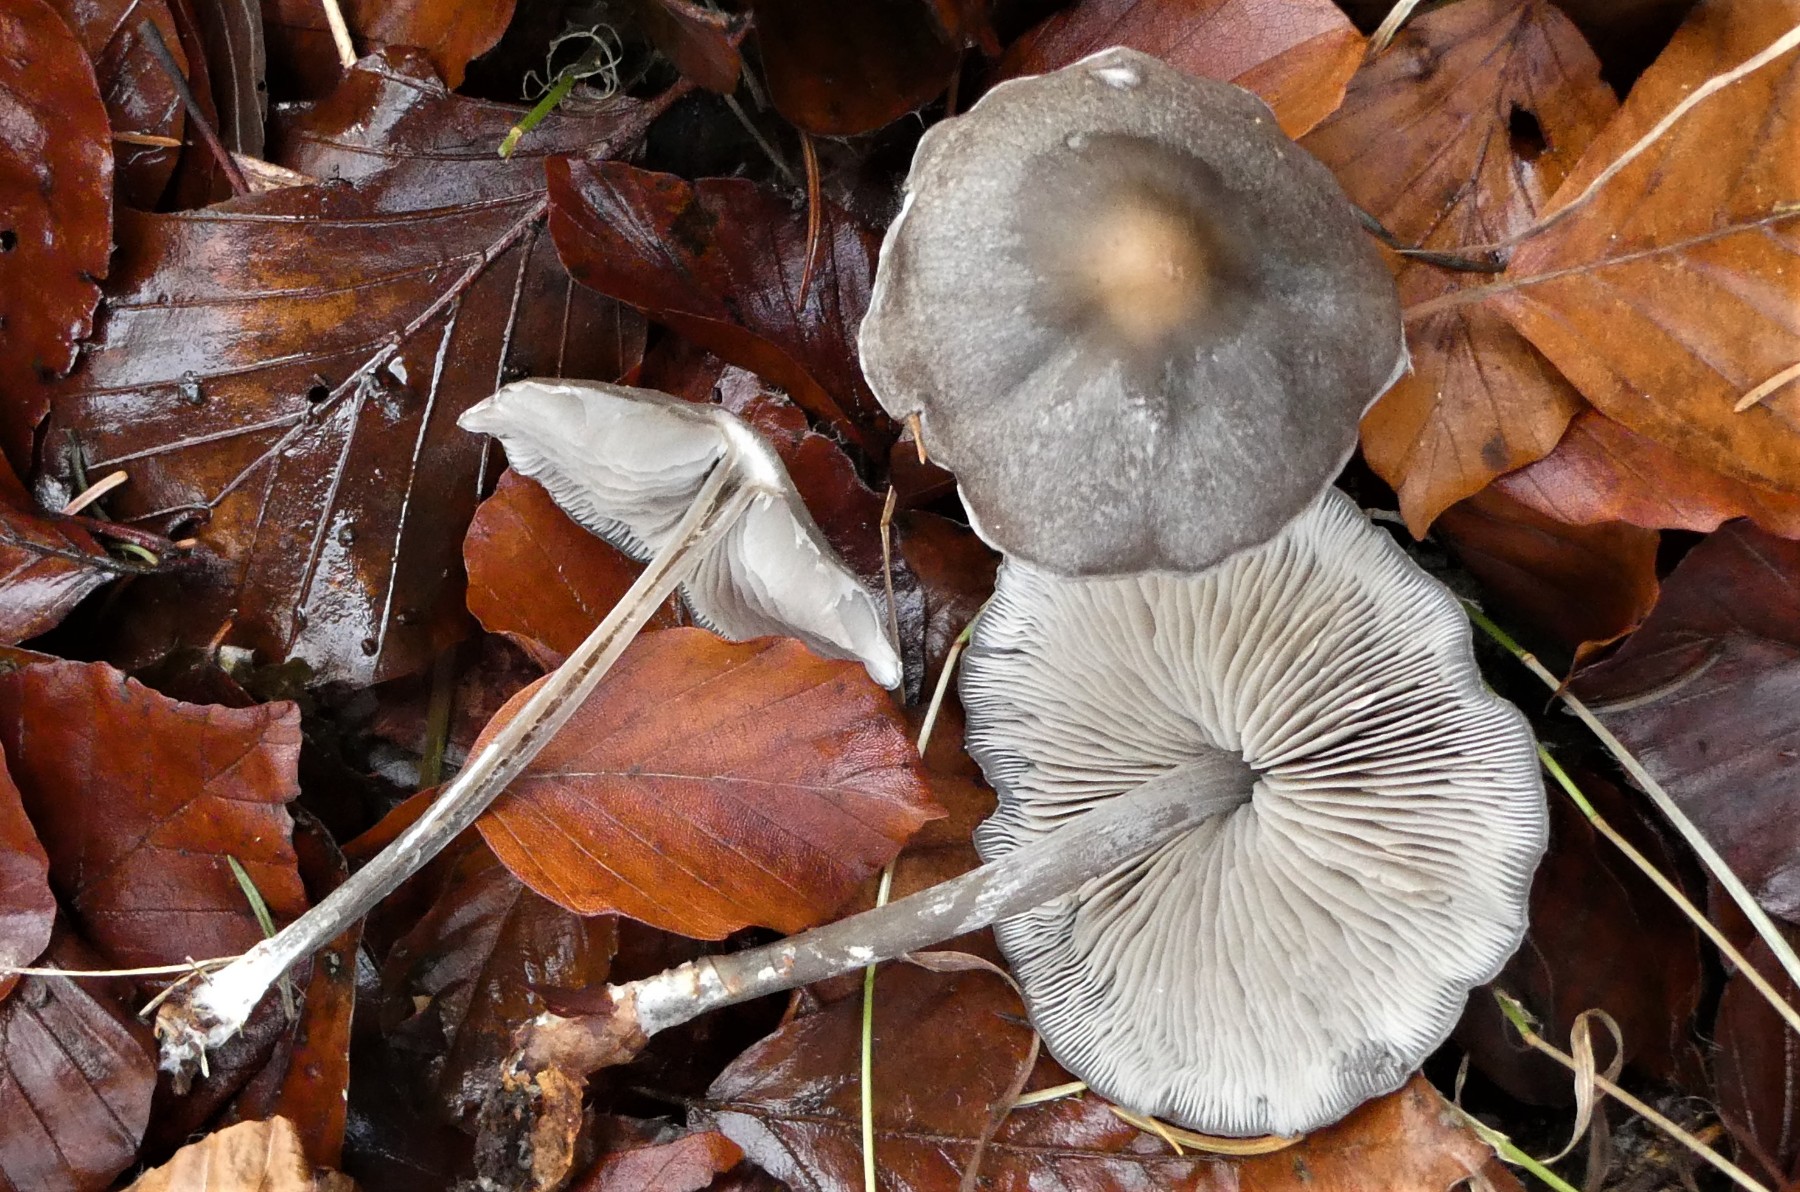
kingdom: Fungi
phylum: Basidiomycota
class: Agaricomycetes
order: Agaricales
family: Lyophyllaceae
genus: Tephrocybe
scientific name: Tephrocybe rancida
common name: mel-gråblad
